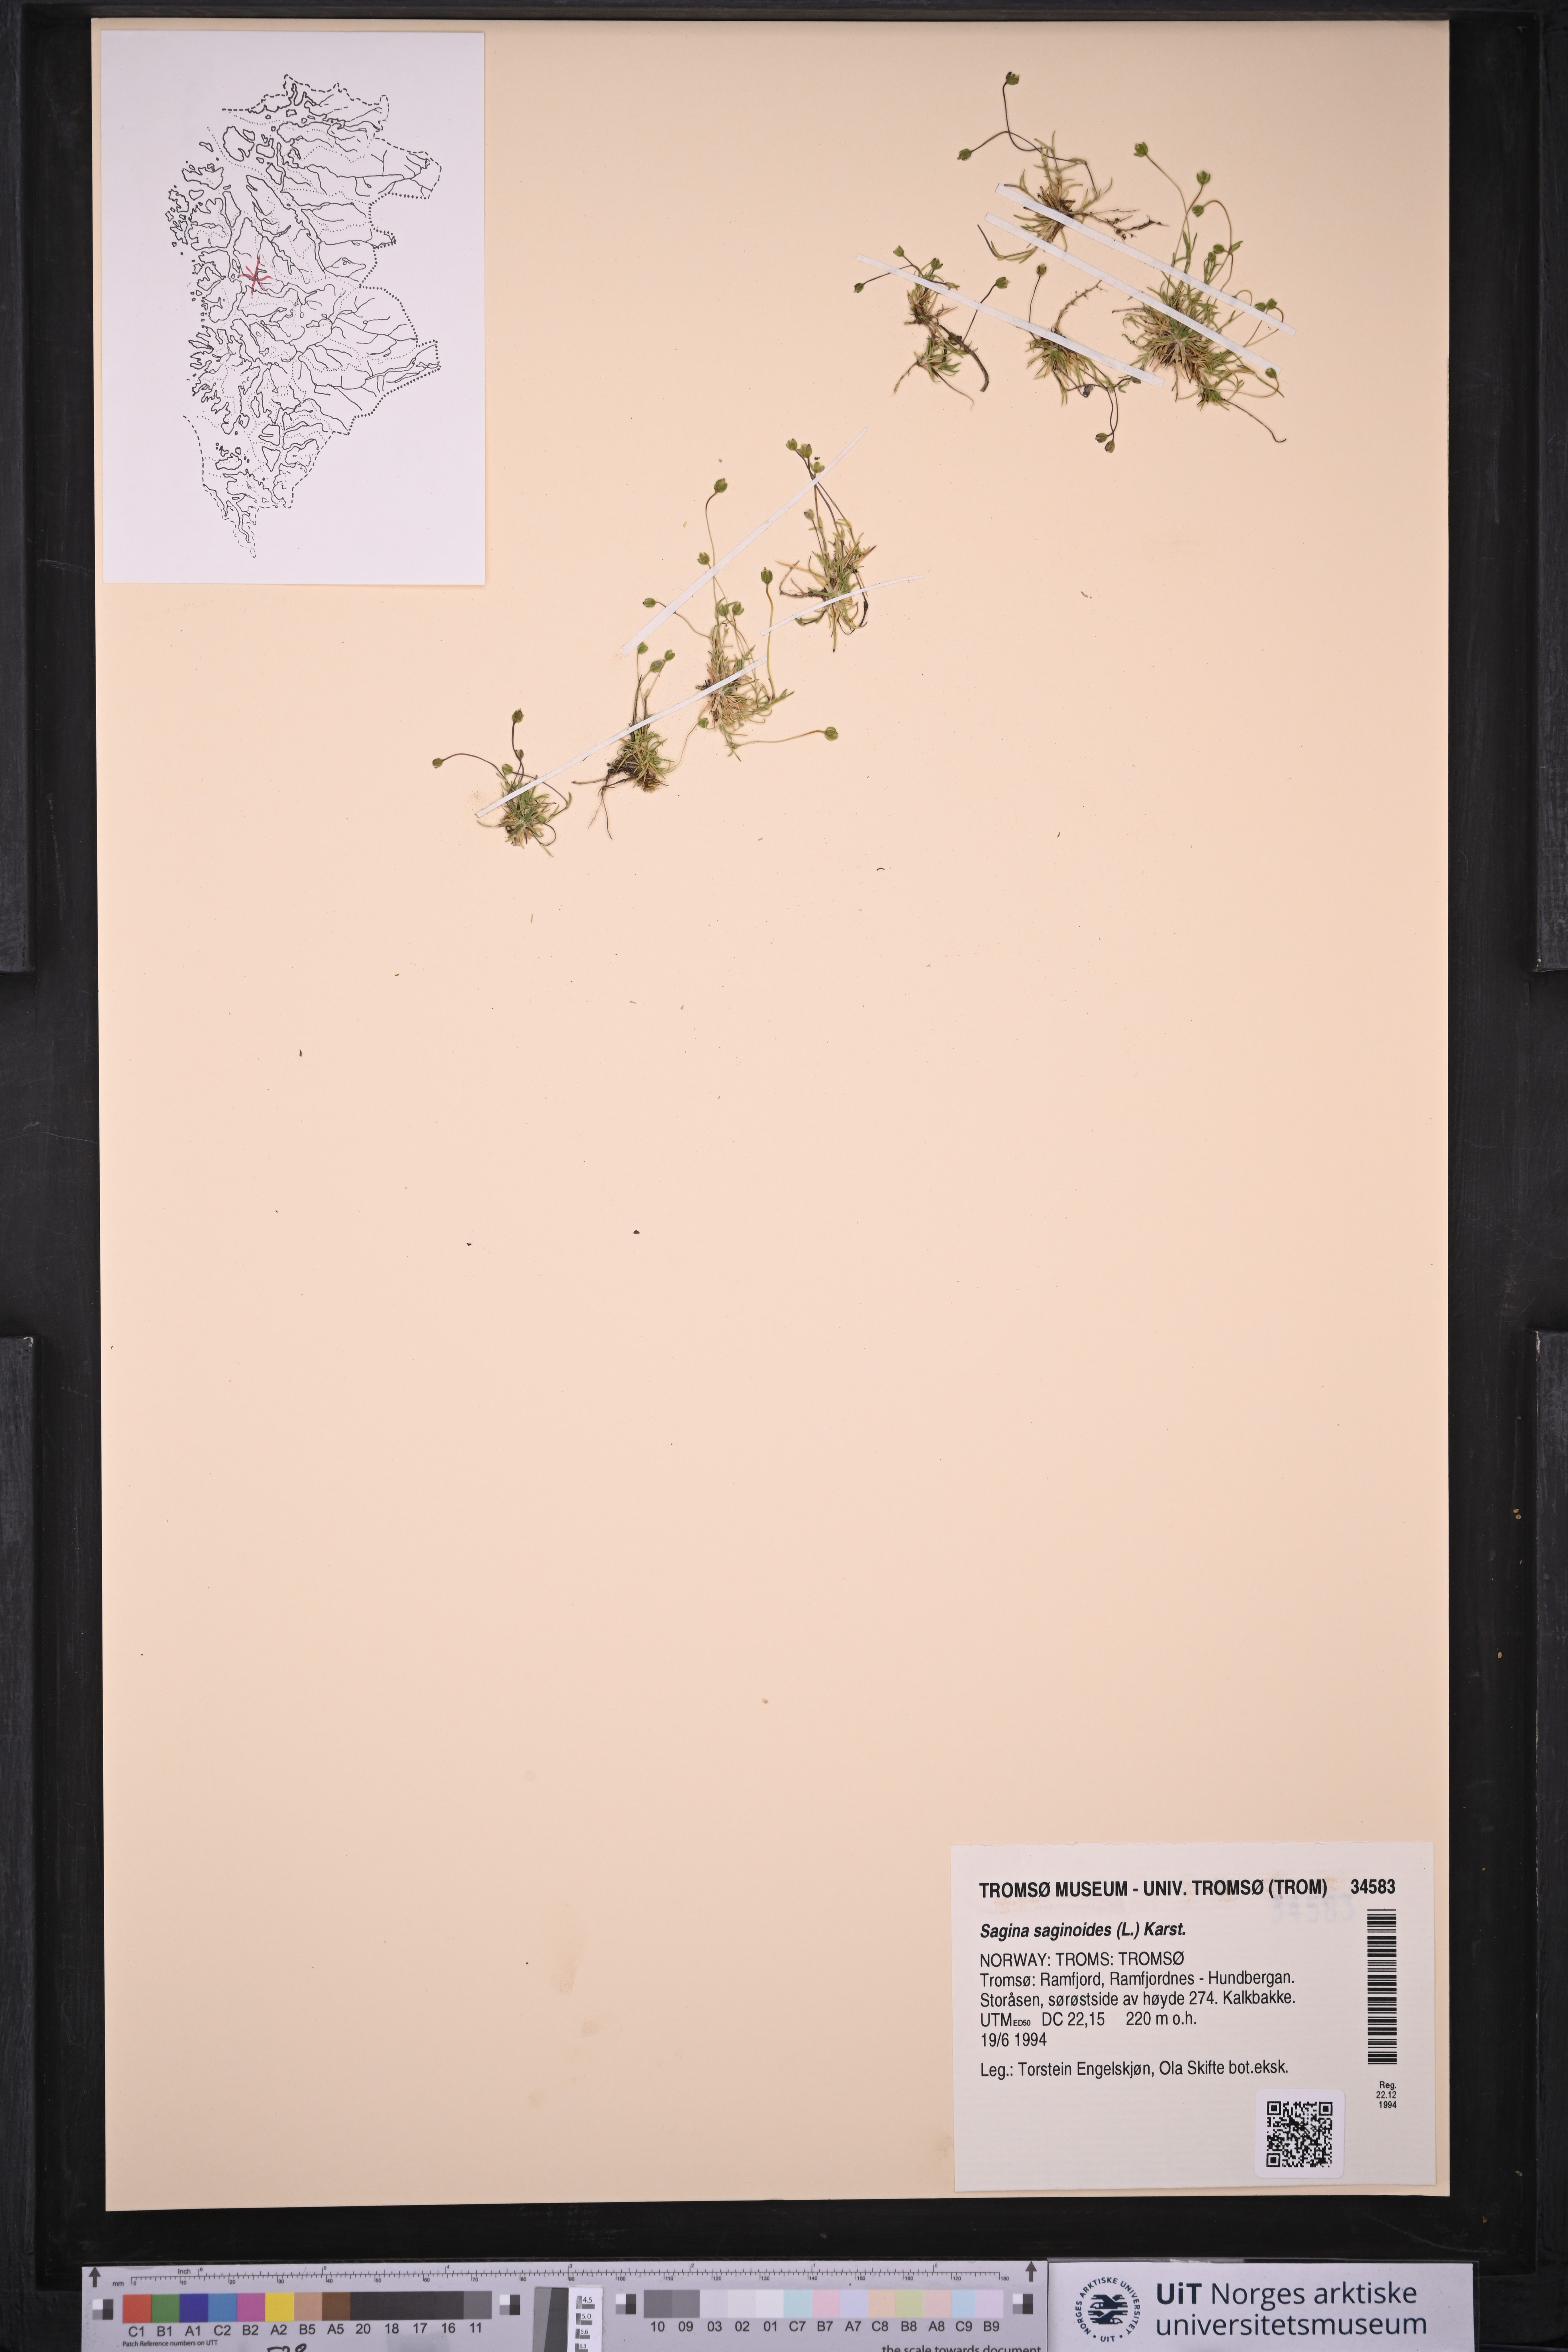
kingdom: Plantae
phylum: Tracheophyta
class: Magnoliopsida
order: Caryophyllales
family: Caryophyllaceae
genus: Sagina
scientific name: Sagina saginoides
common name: Alpine pearlwort
